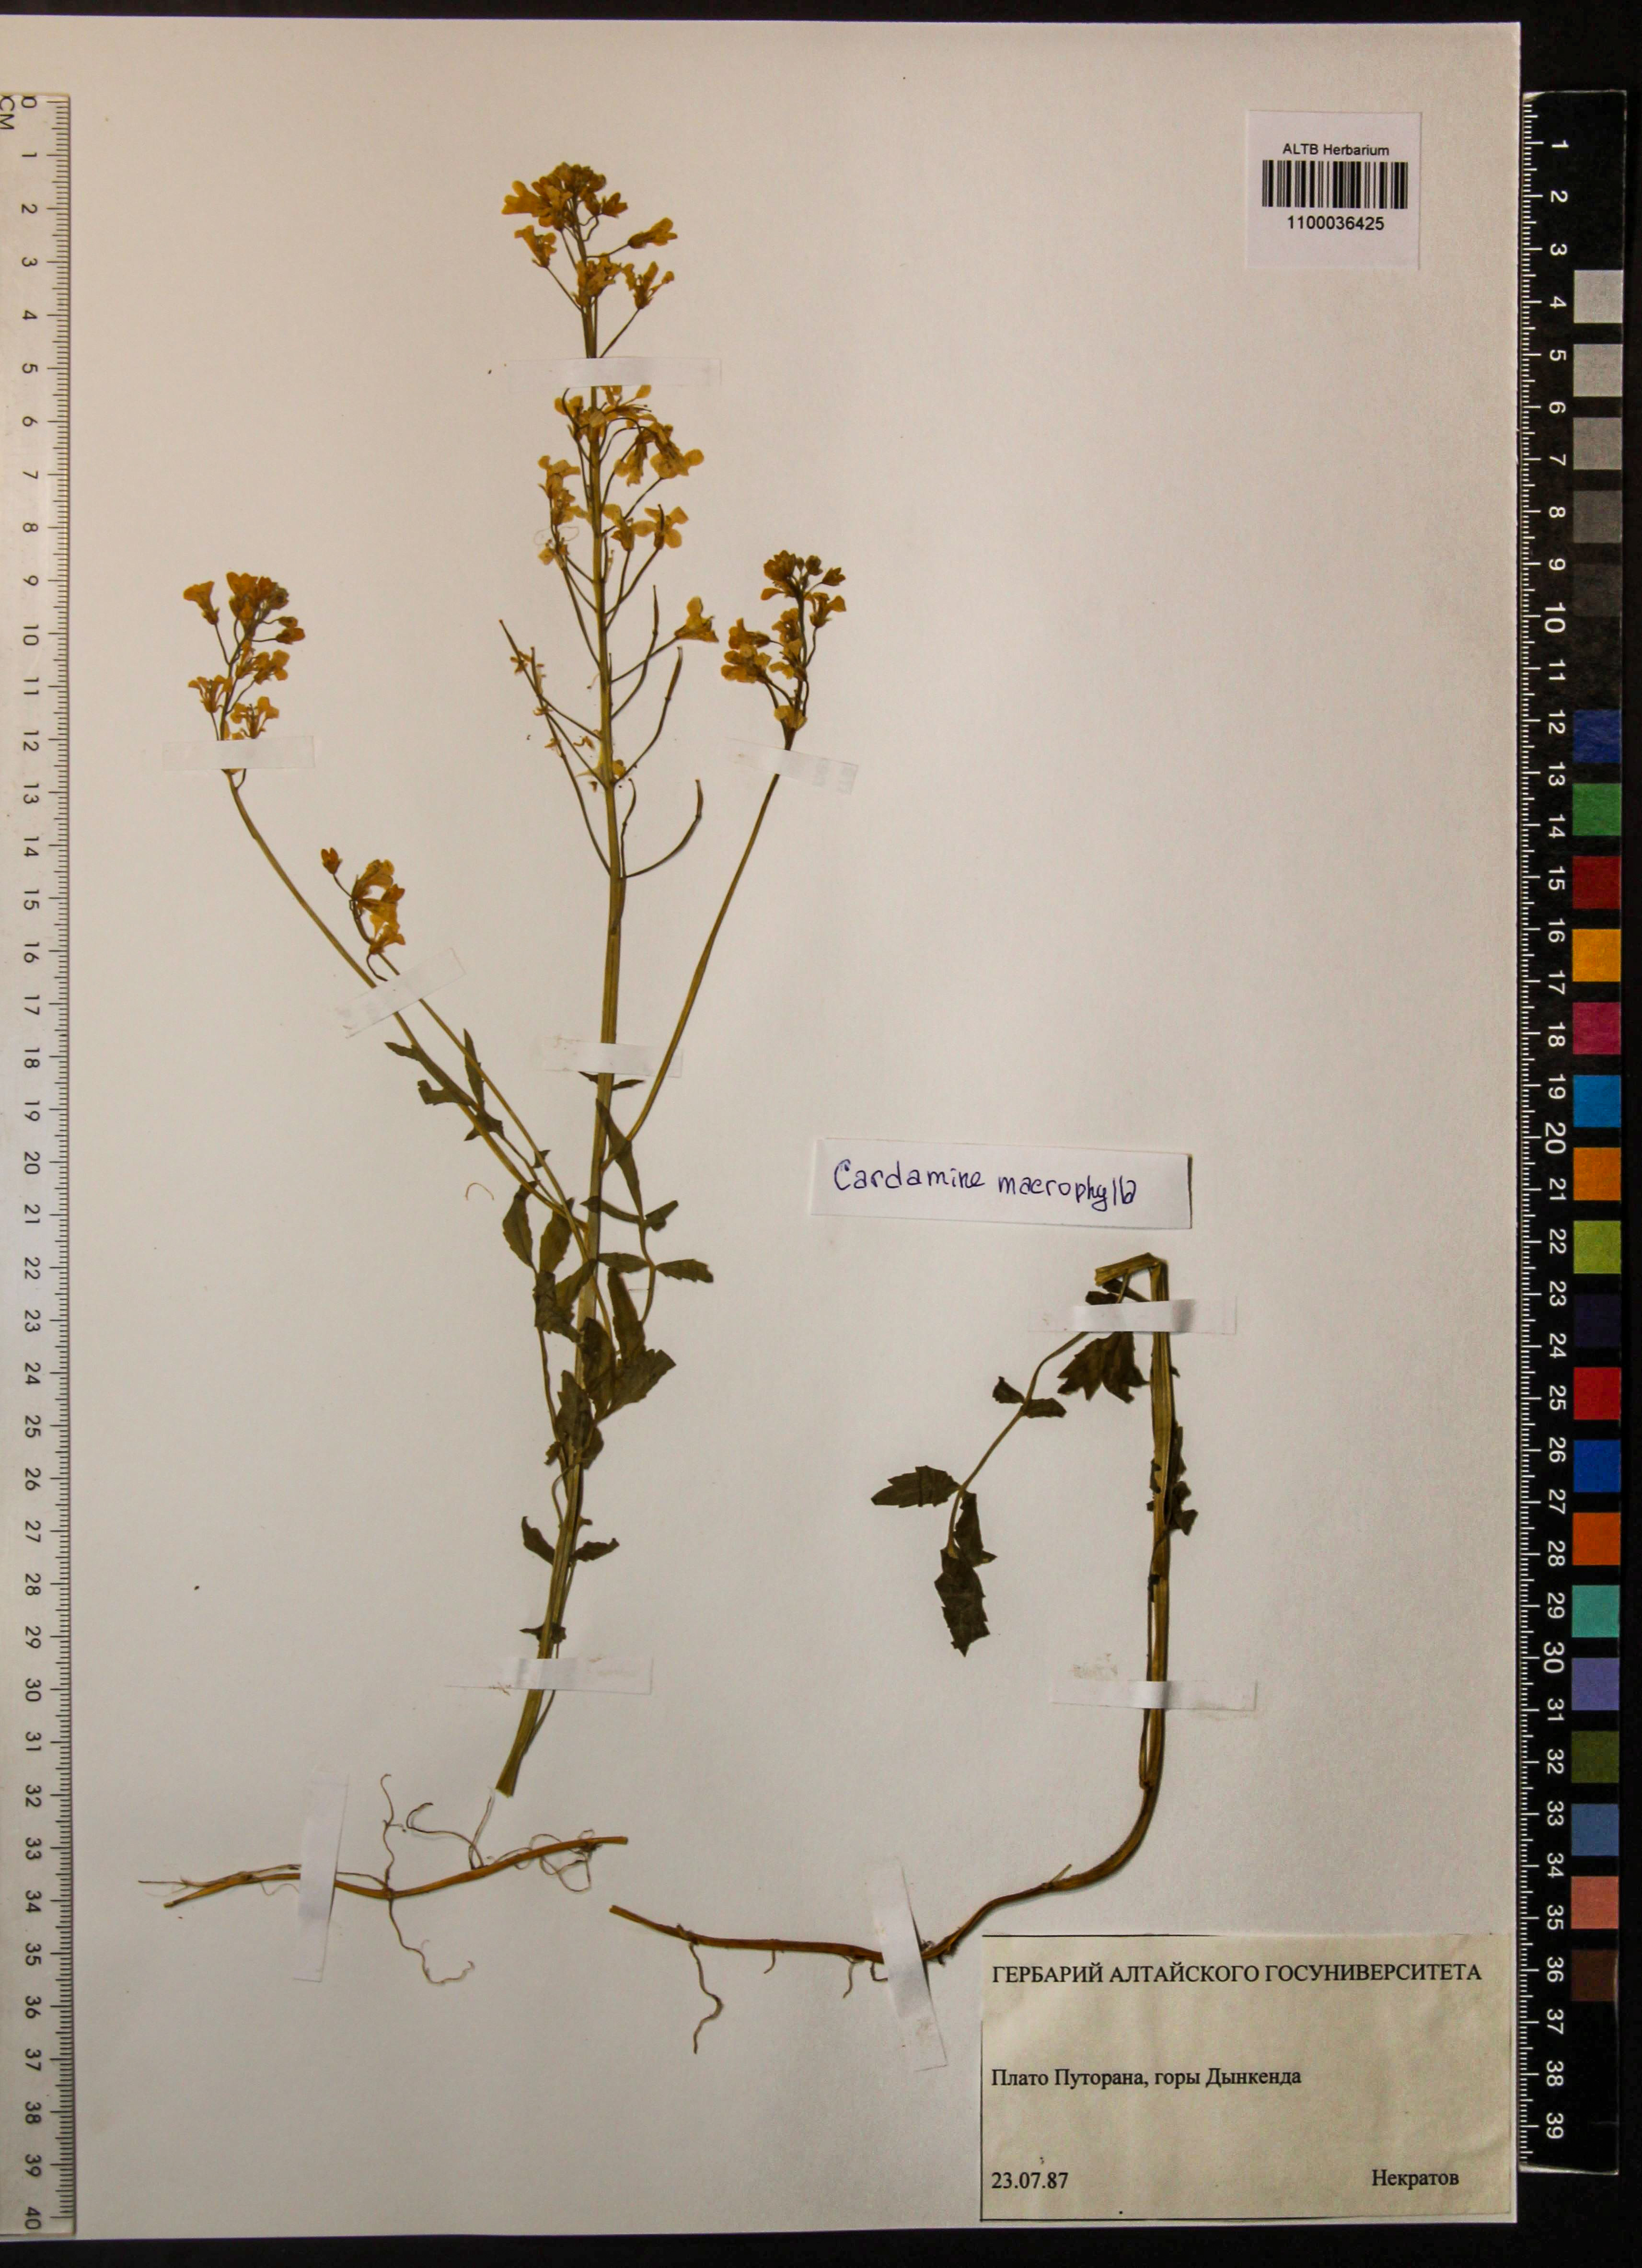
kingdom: Plantae
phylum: Tracheophyta
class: Magnoliopsida
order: Brassicales
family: Brassicaceae
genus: Cardamine
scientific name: Cardamine macrophylla
